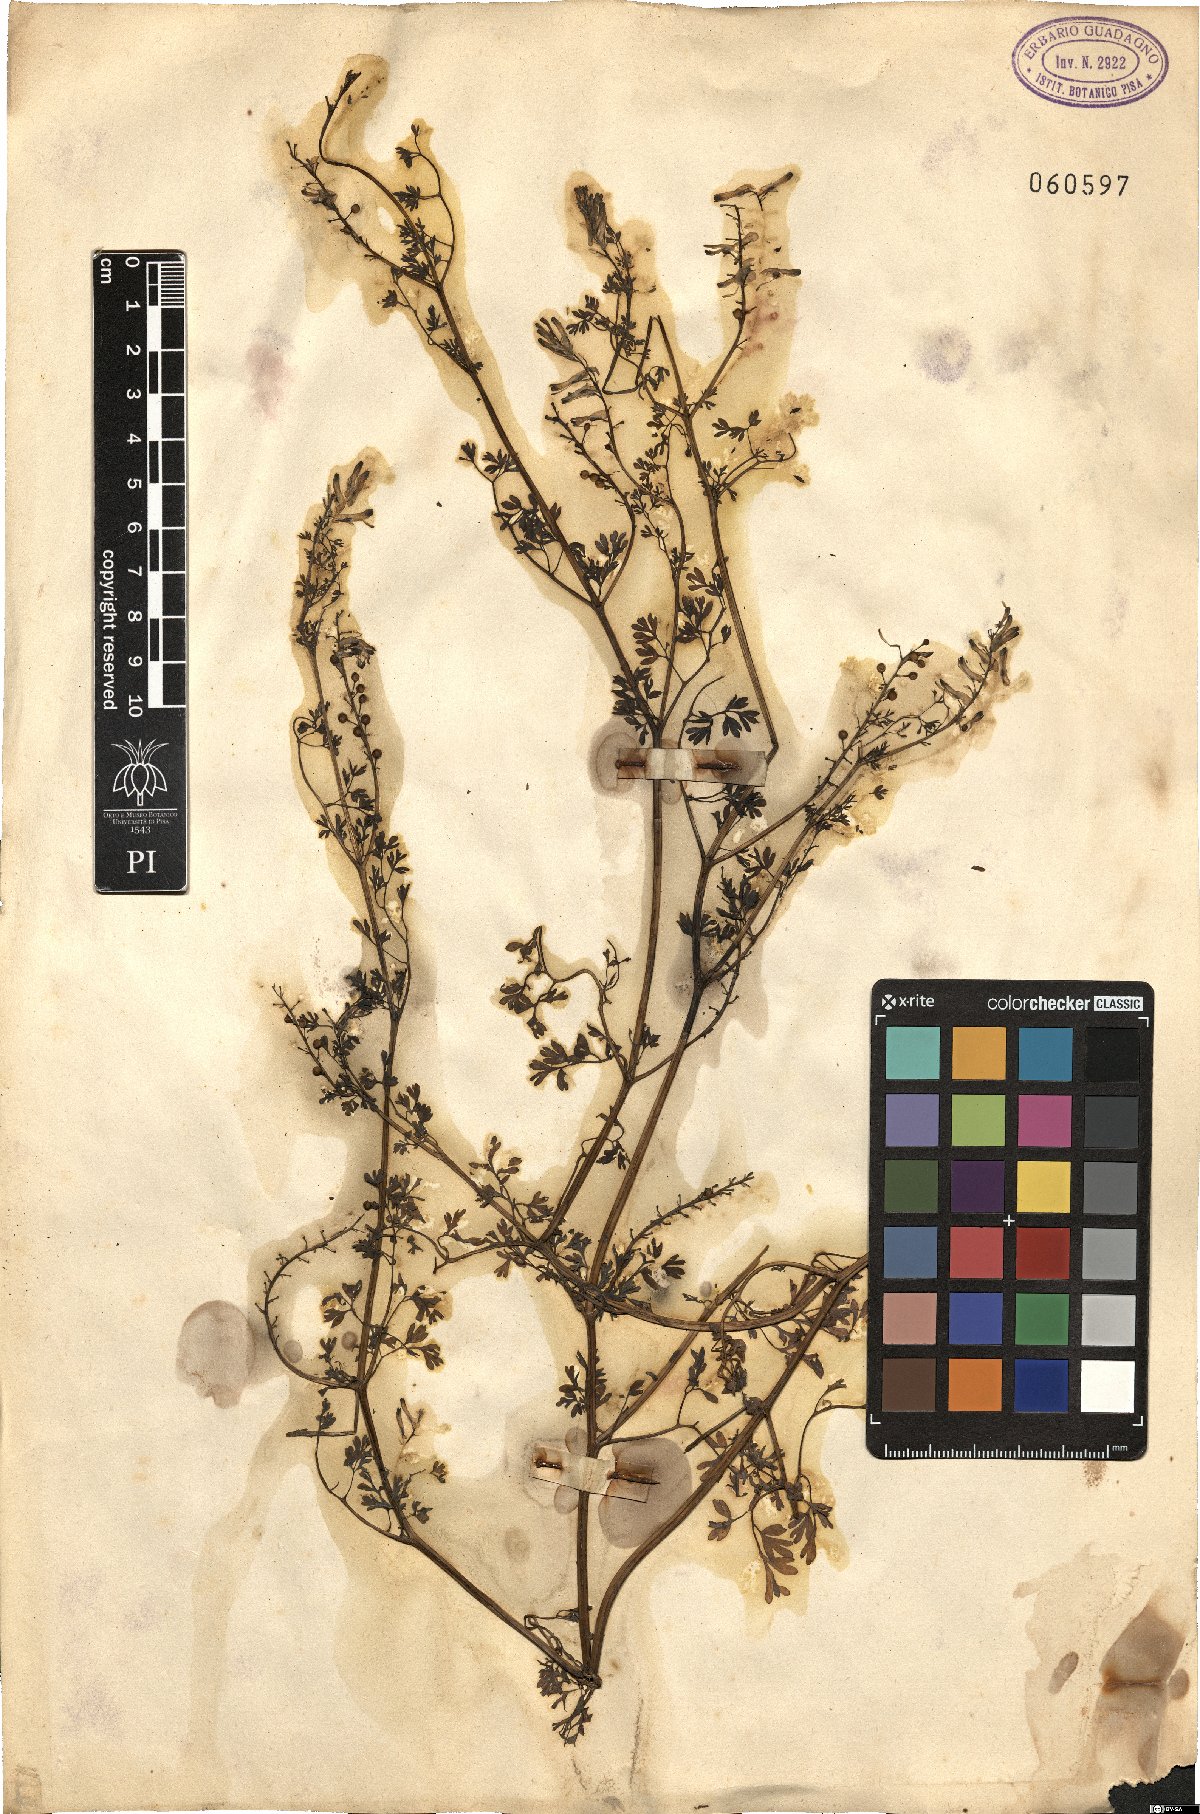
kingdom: Plantae
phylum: Tracheophyta
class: Magnoliopsida
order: Ranunculales
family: Papaveraceae
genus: Fumaria
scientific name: Fumaria flabellata
